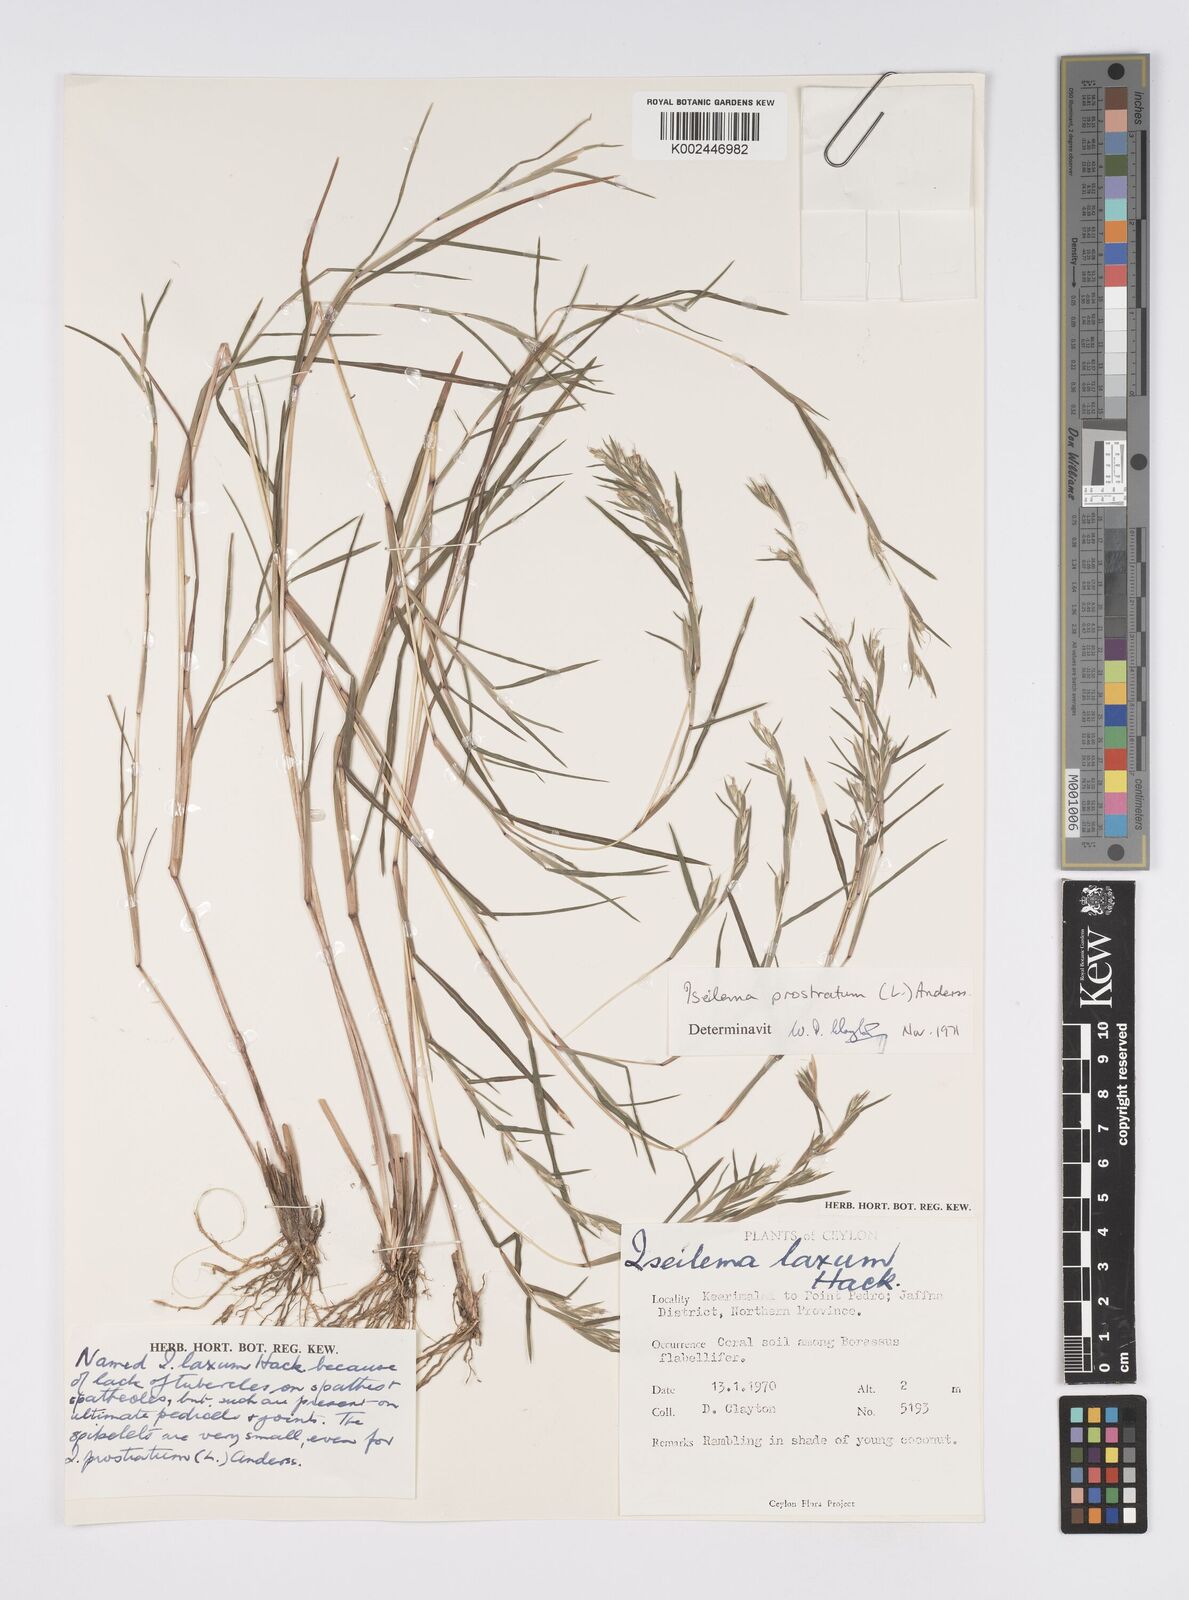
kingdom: Plantae
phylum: Tracheophyta
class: Liliopsida
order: Poales
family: Poaceae
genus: Iseilema
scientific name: Iseilema prostratum
